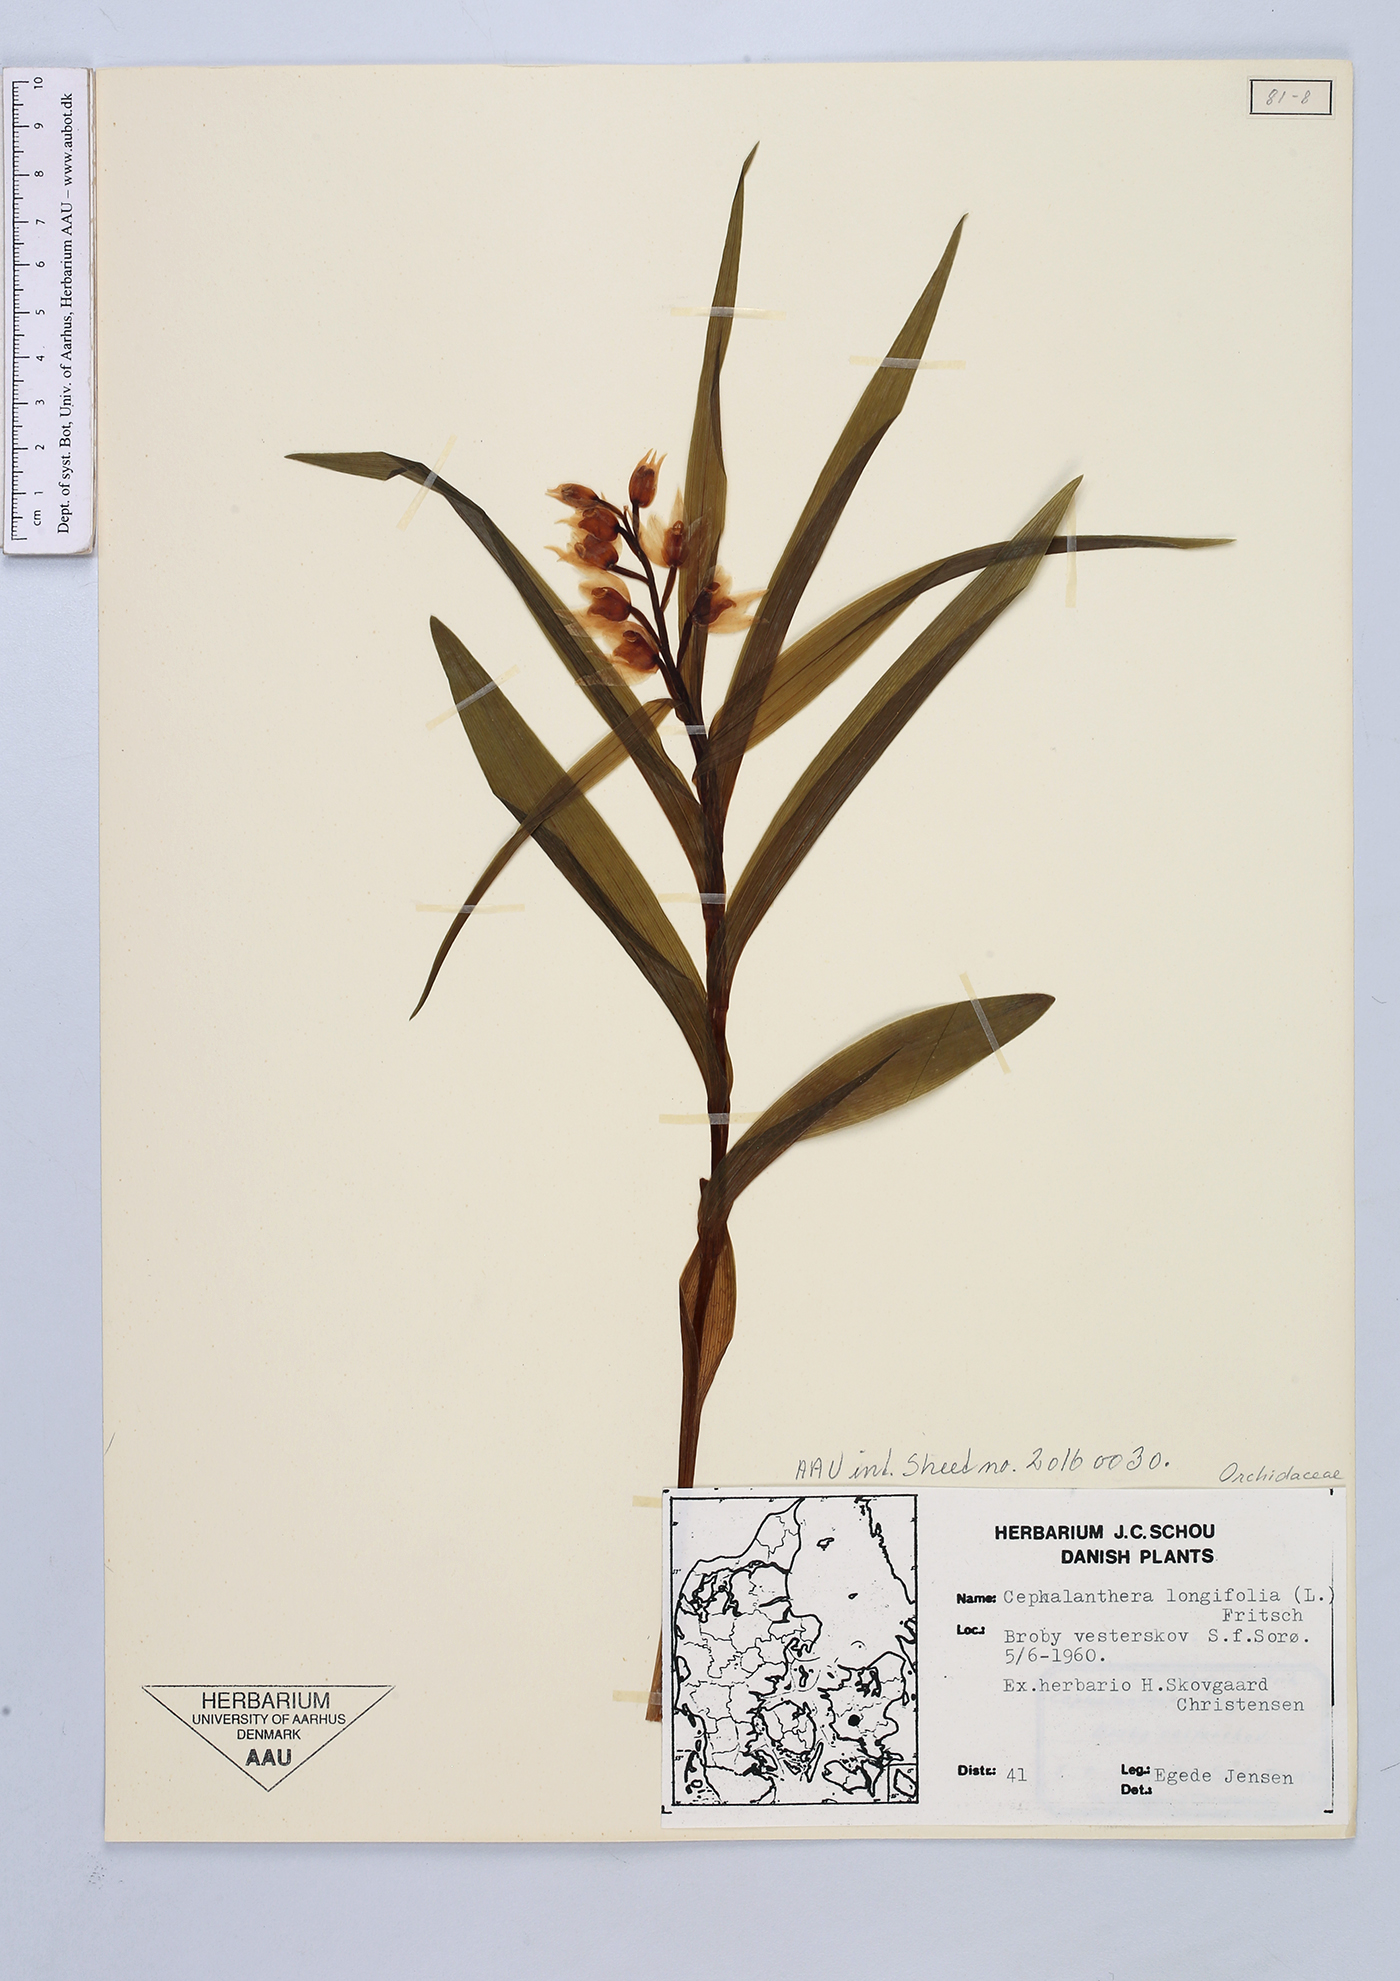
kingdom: Plantae
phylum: Tracheophyta
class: Liliopsida
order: Asparagales
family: Orchidaceae
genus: Cephalanthera
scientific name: Cephalanthera longifolia
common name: Narrow-leaved helleborine
